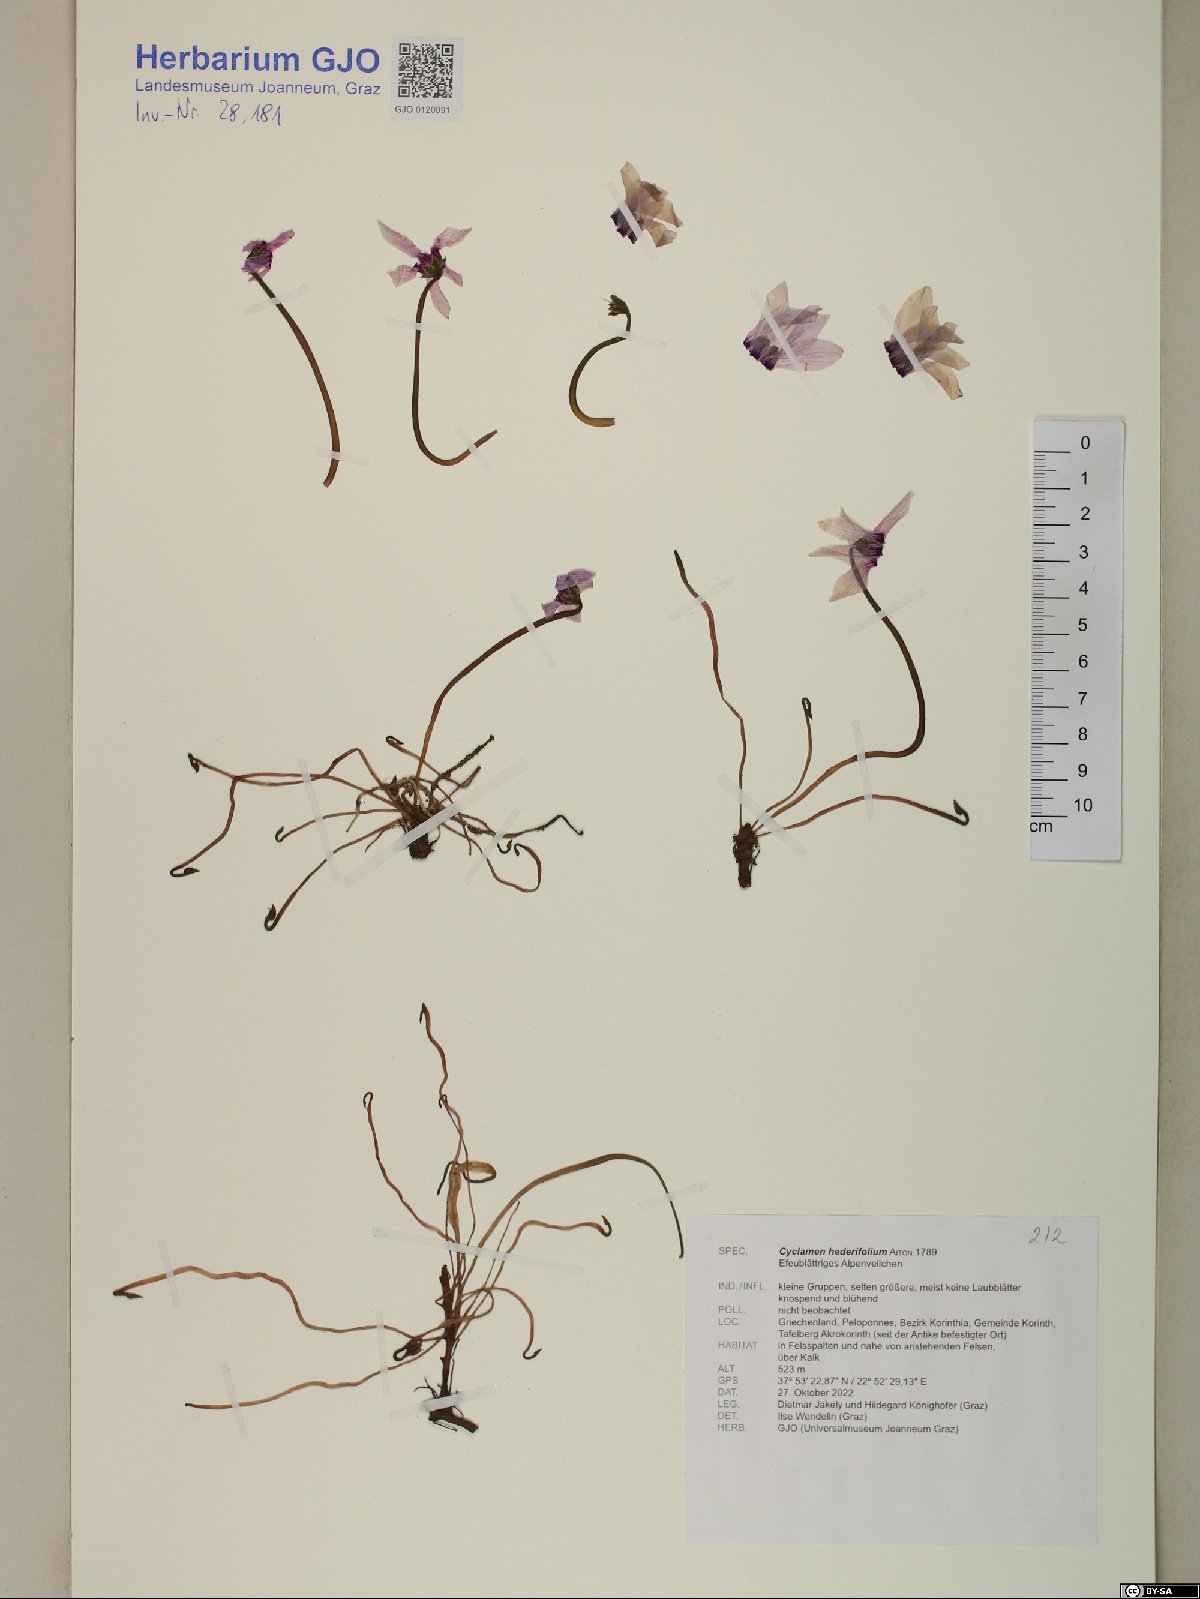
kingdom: Plantae
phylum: Tracheophyta
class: Magnoliopsida
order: Ericales
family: Primulaceae
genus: Cyclamen
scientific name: Cyclamen hederifolium
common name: Sowbread
